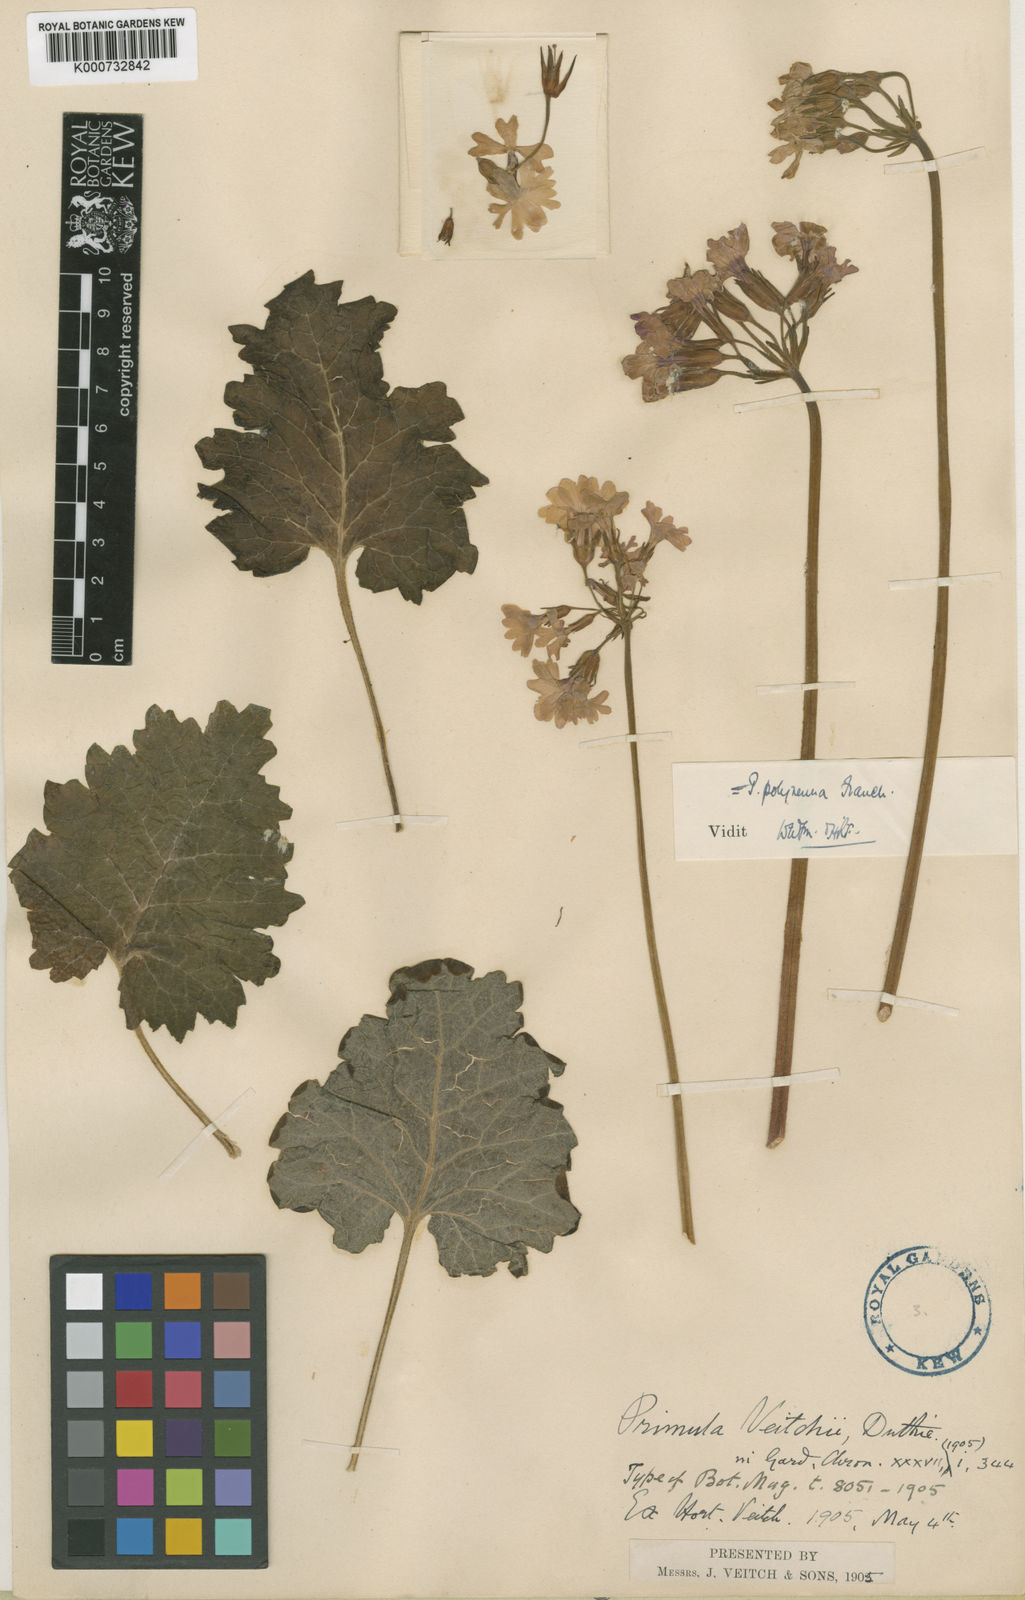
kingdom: Plantae
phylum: Tracheophyta
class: Magnoliopsida
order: Ericales
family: Primulaceae
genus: Primula
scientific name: Primula polyneura
